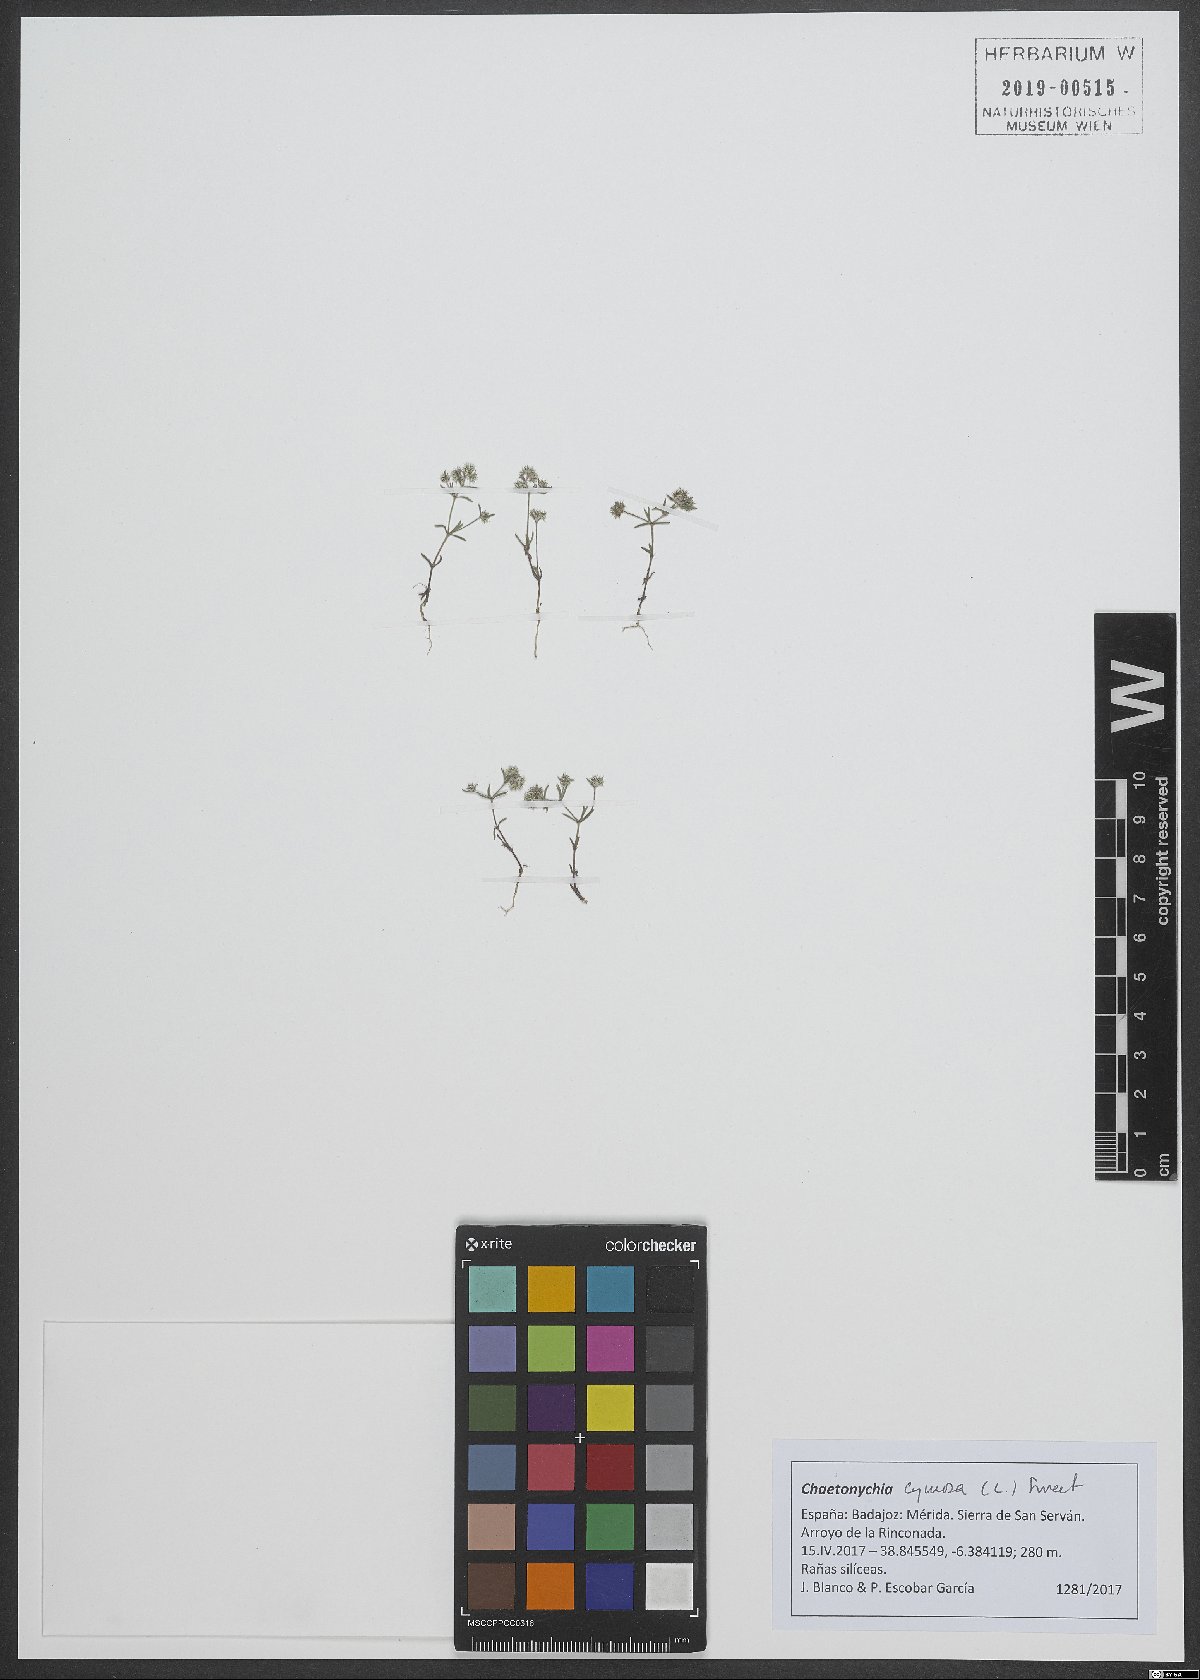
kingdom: Plantae
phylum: Tracheophyta
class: Magnoliopsida
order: Caryophyllales
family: Caryophyllaceae
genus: Chaetonychia
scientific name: Chaetonychia cymosa
